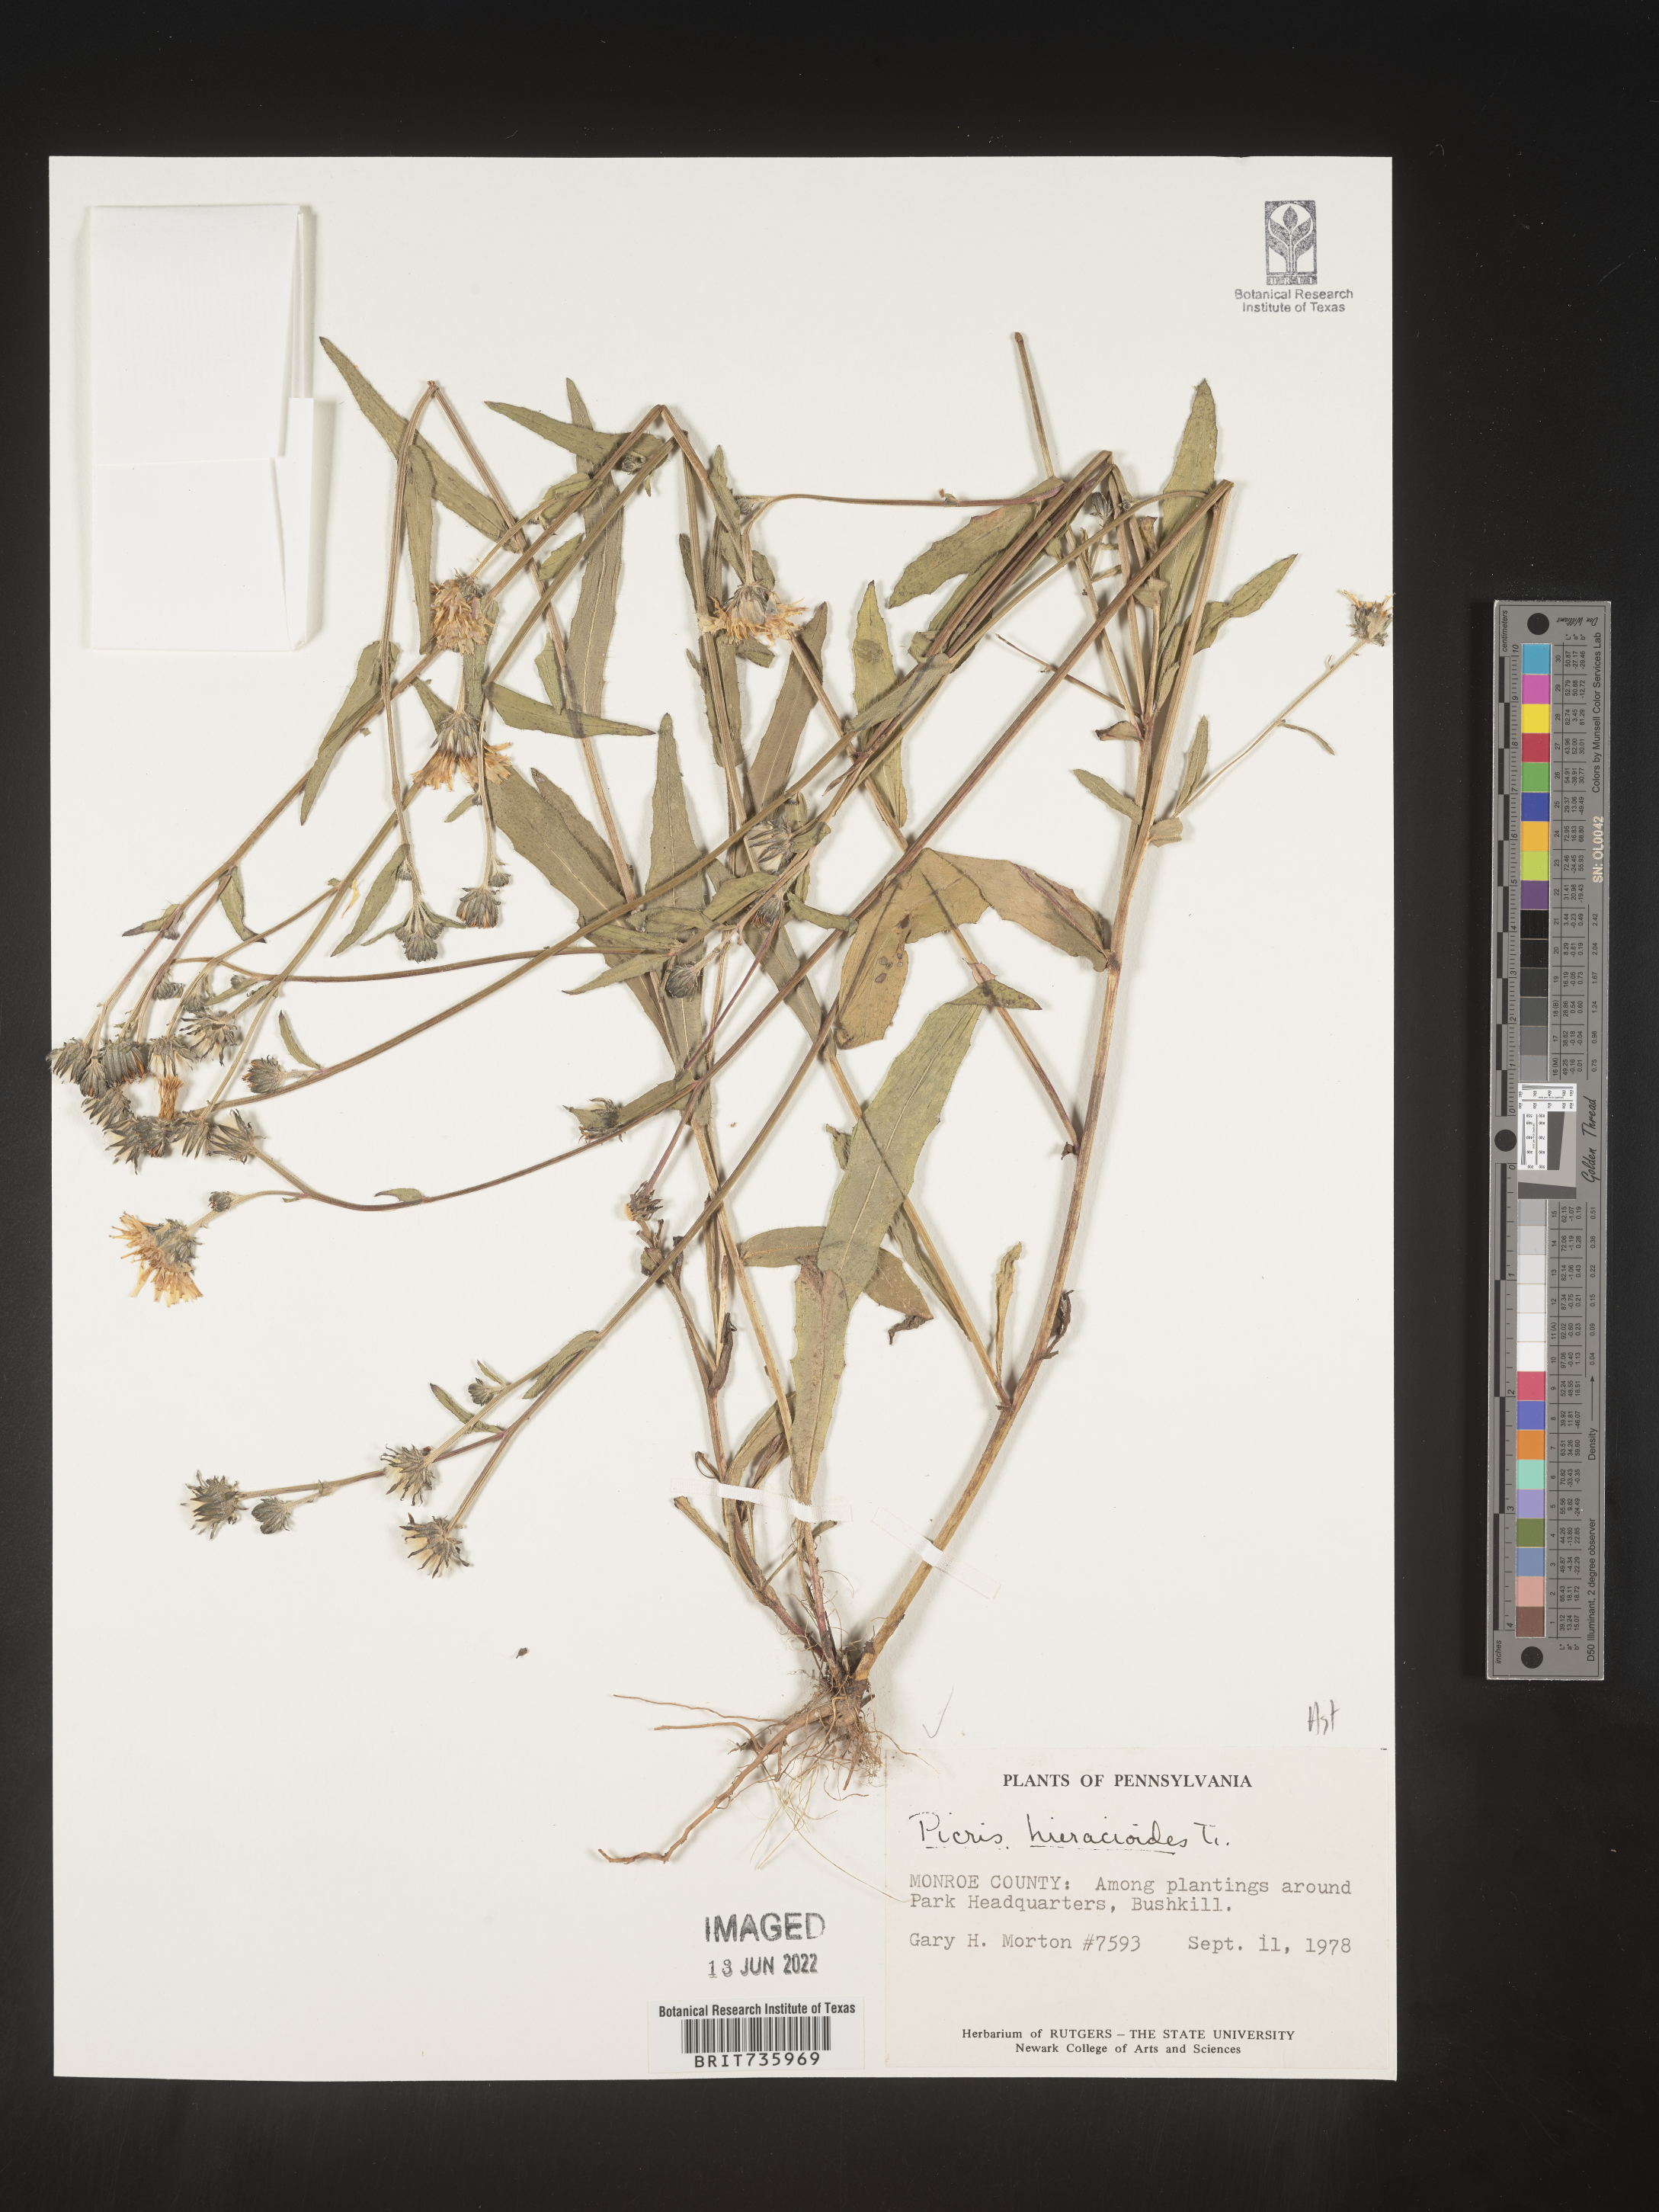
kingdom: Plantae
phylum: Tracheophyta
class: Magnoliopsida
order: Asterales
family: Asteraceae
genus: Picris
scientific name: Picris hieracioides
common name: Hawkweed oxtongue
